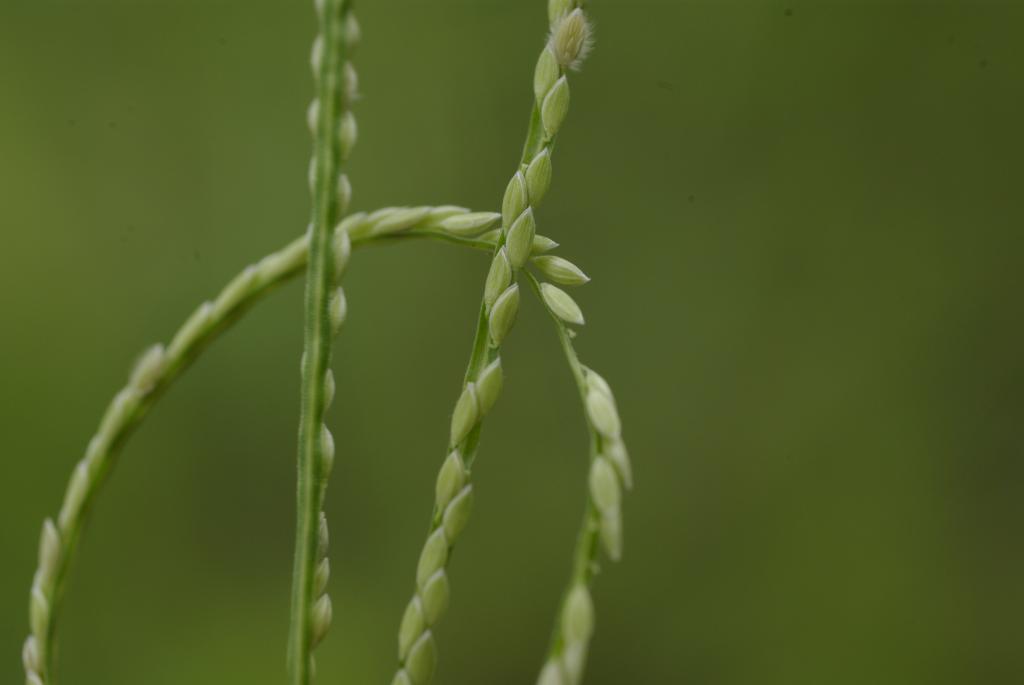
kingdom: Plantae
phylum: Tracheophyta
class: Liliopsida
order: Poales
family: Poaceae
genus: Digitaria
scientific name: Digitaria ciliaris
